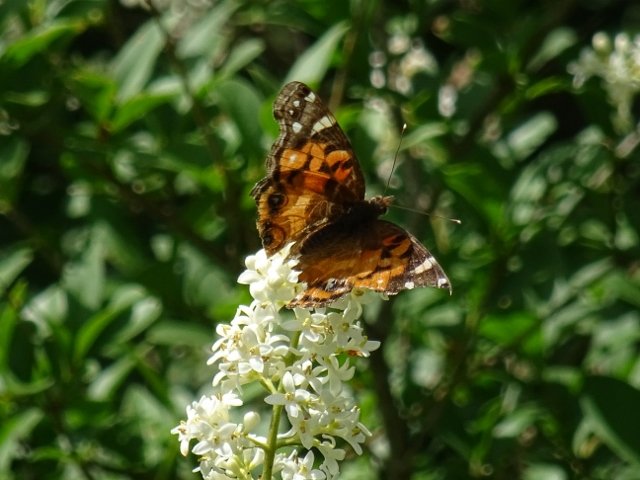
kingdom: Animalia
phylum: Arthropoda
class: Insecta
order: Lepidoptera
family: Nymphalidae
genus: Vanessa
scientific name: Vanessa virginiensis
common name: American Lady
